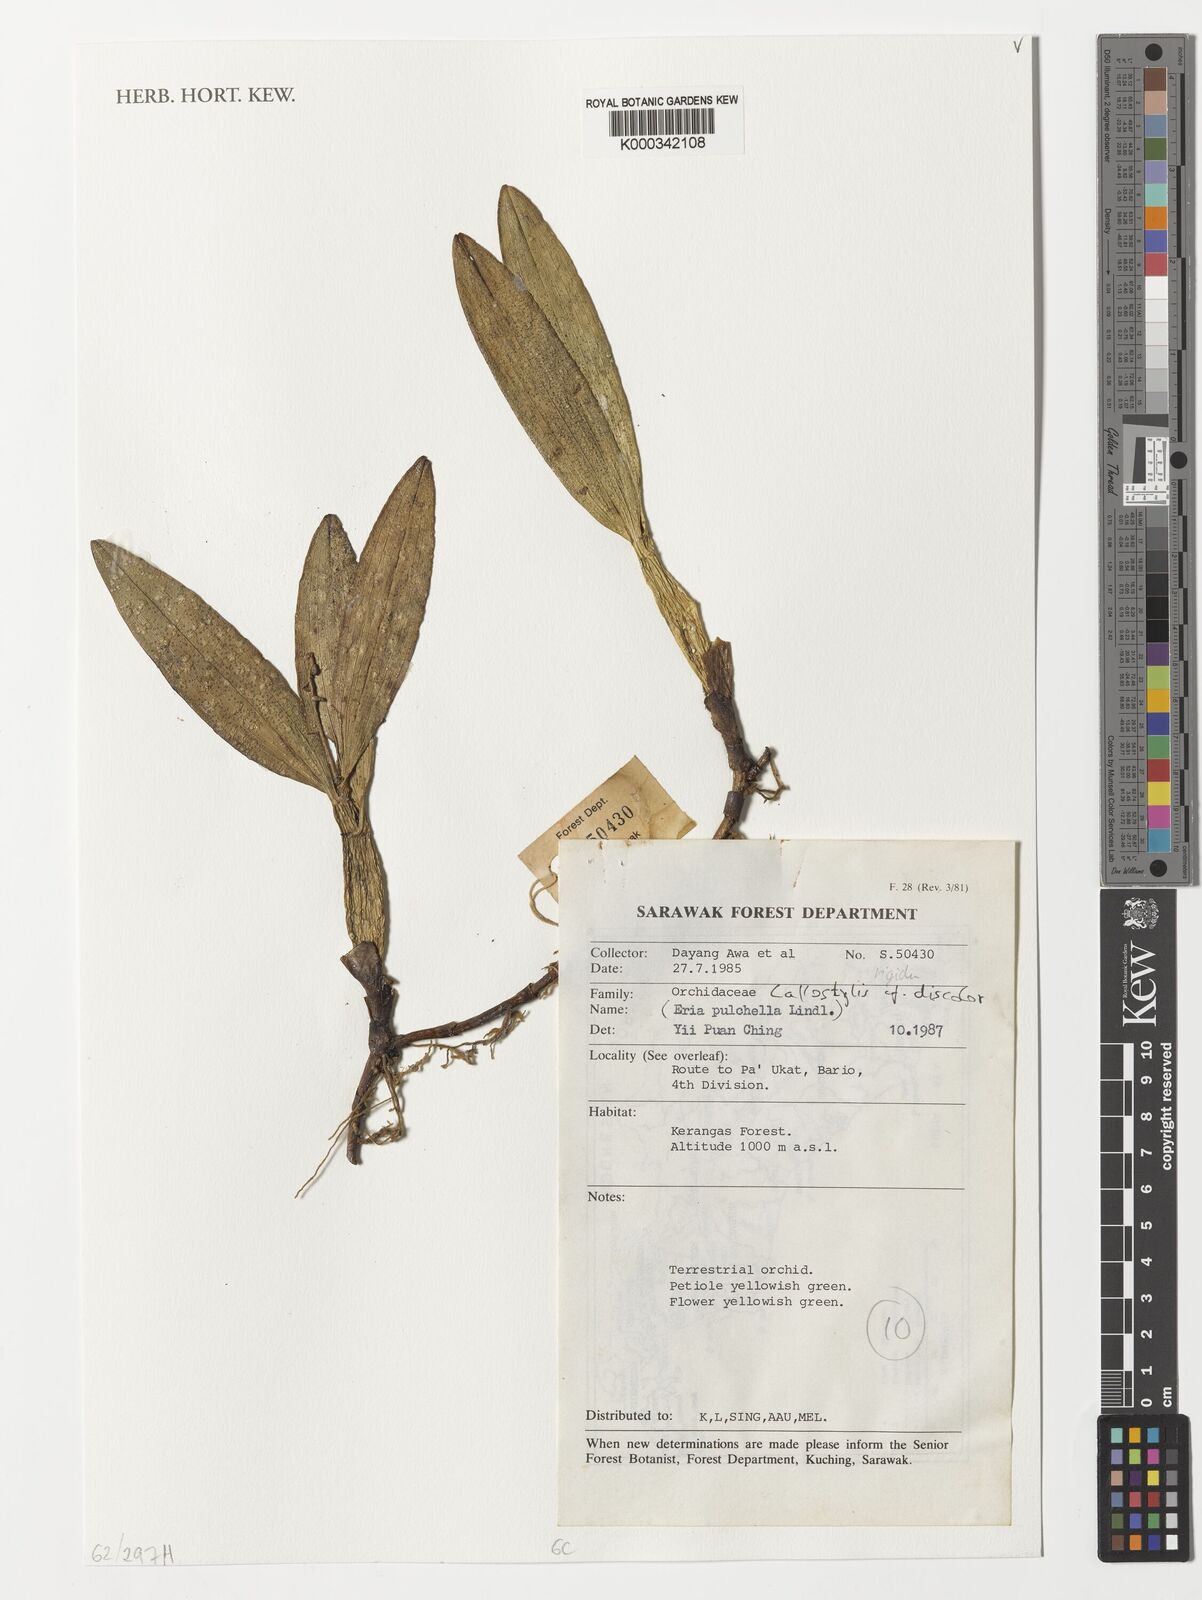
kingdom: Plantae
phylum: Tracheophyta
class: Liliopsida
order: Asparagales
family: Orchidaceae
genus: Callostylis
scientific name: Callostylis rigida
